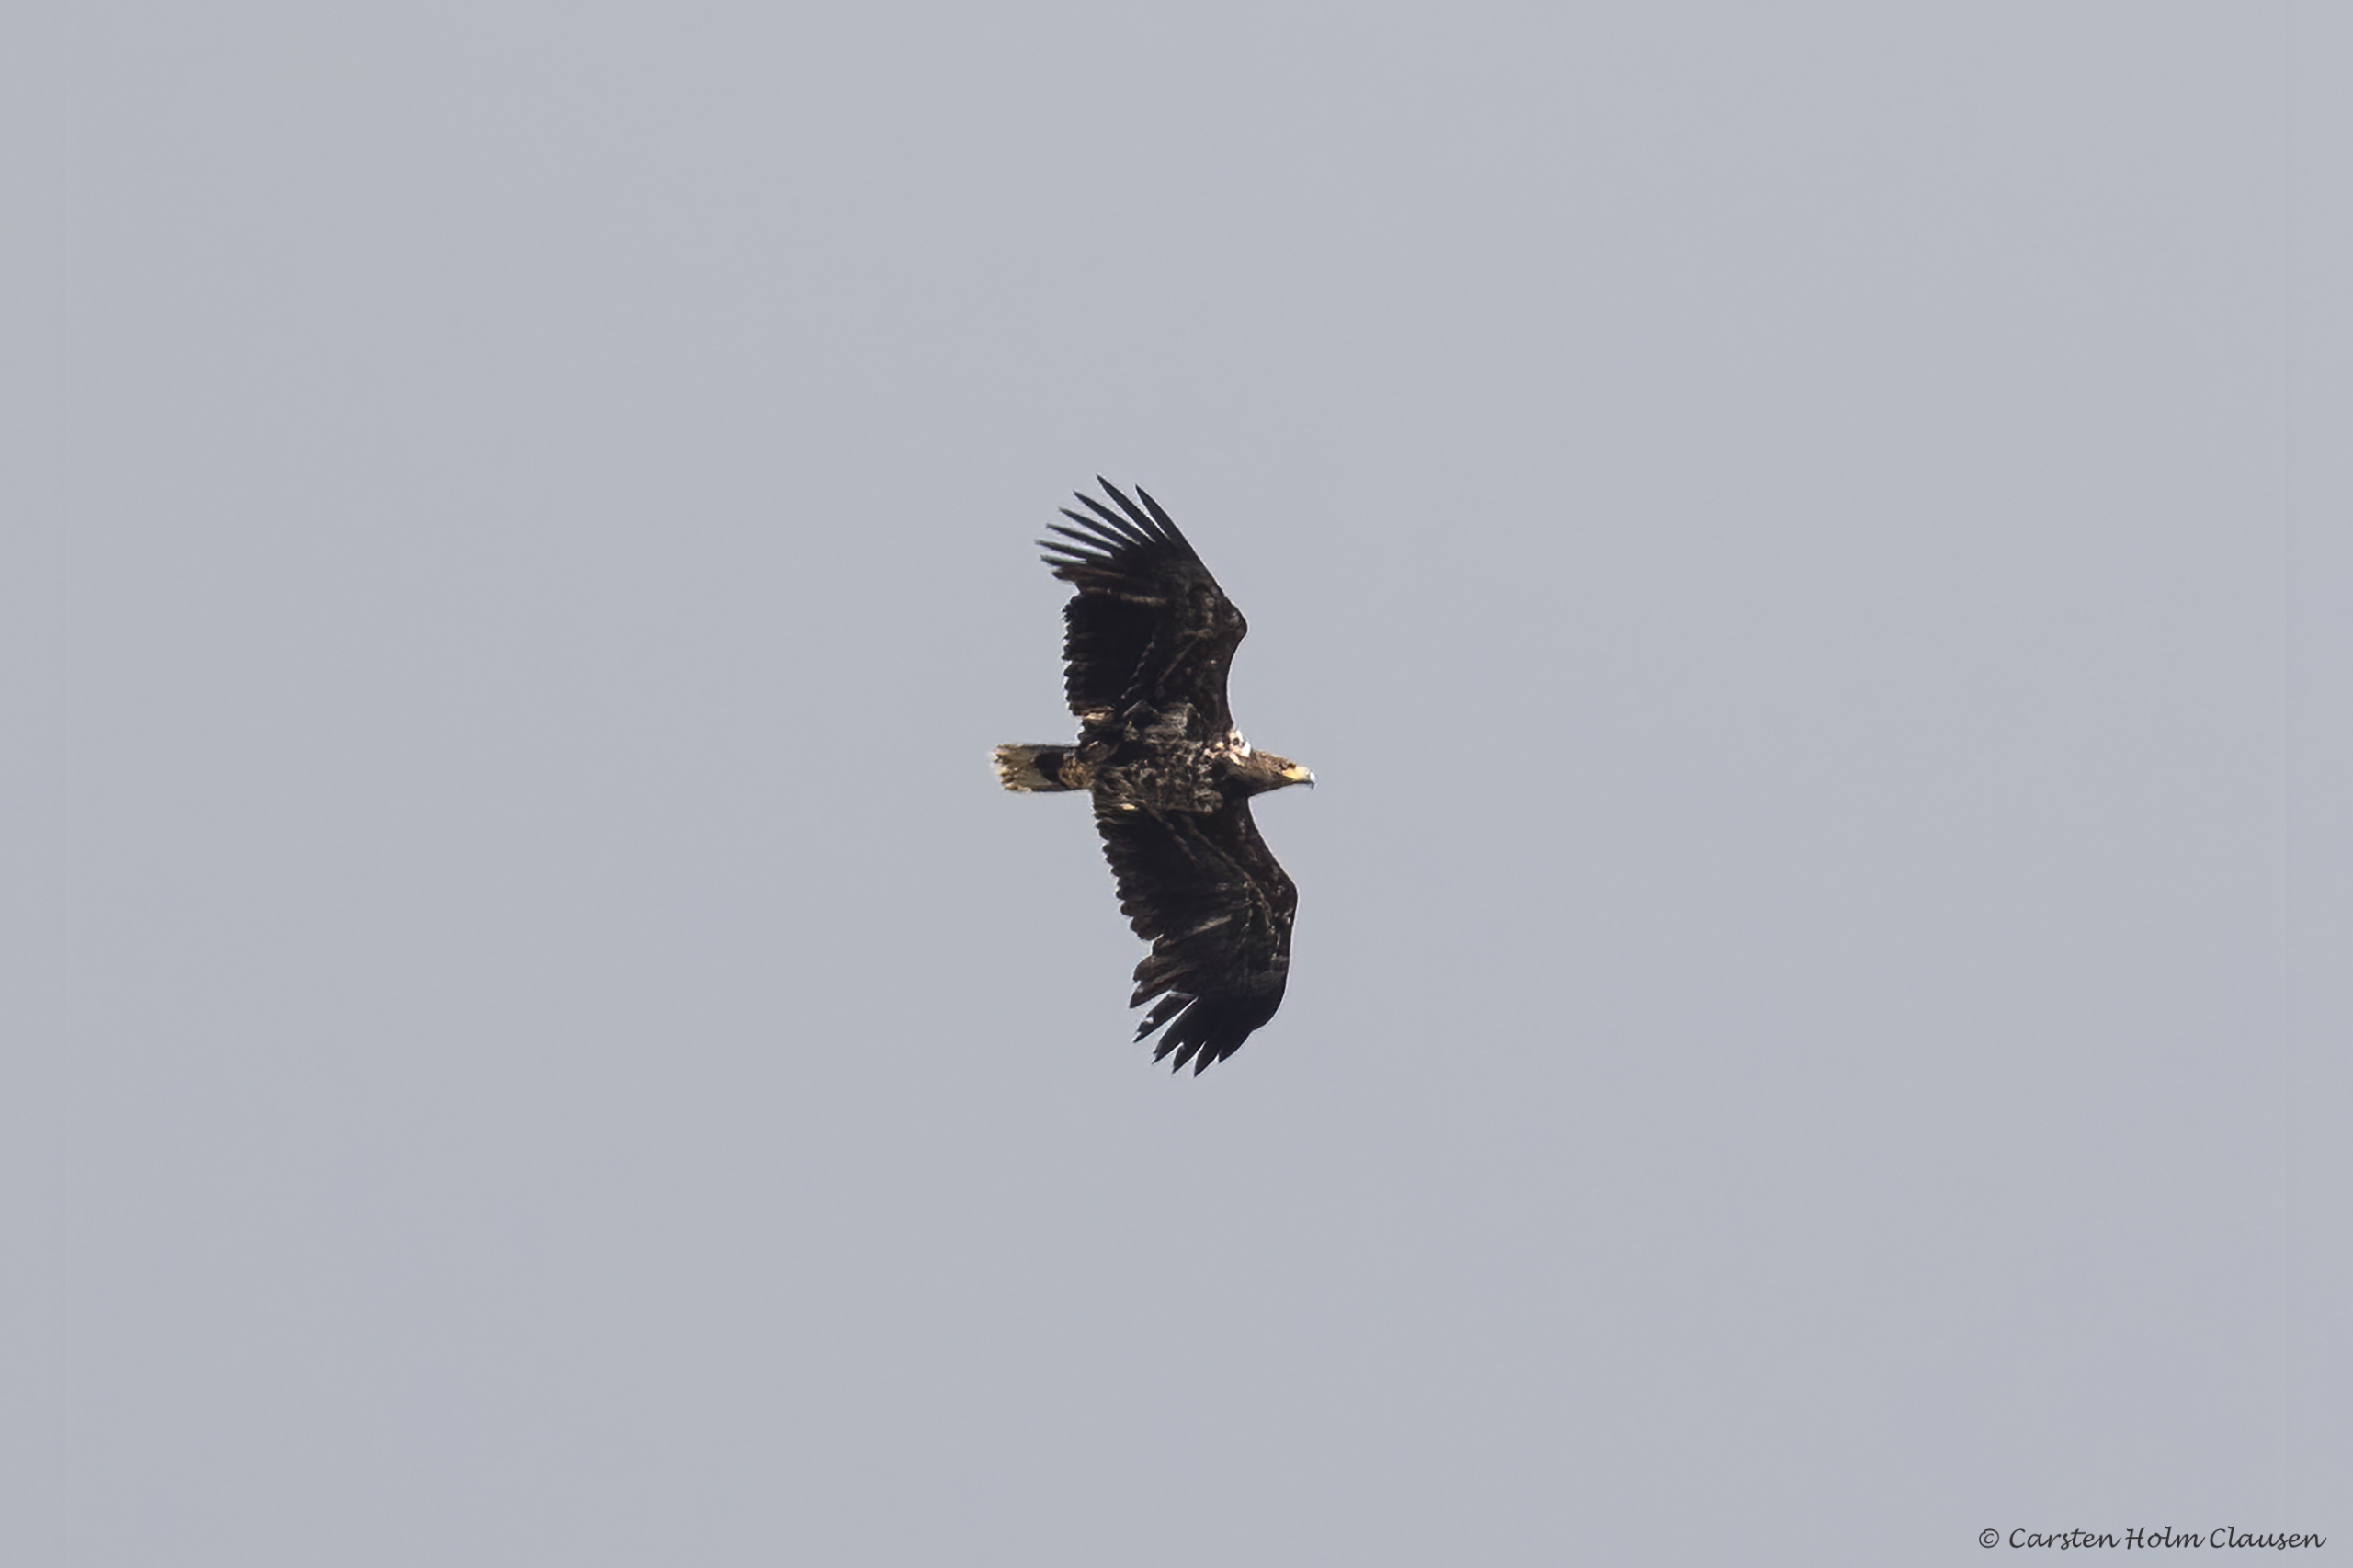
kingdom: Animalia
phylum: Chordata
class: Aves
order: Accipitriformes
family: Accipitridae
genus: Haliaeetus
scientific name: Haliaeetus albicilla
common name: Havørn
